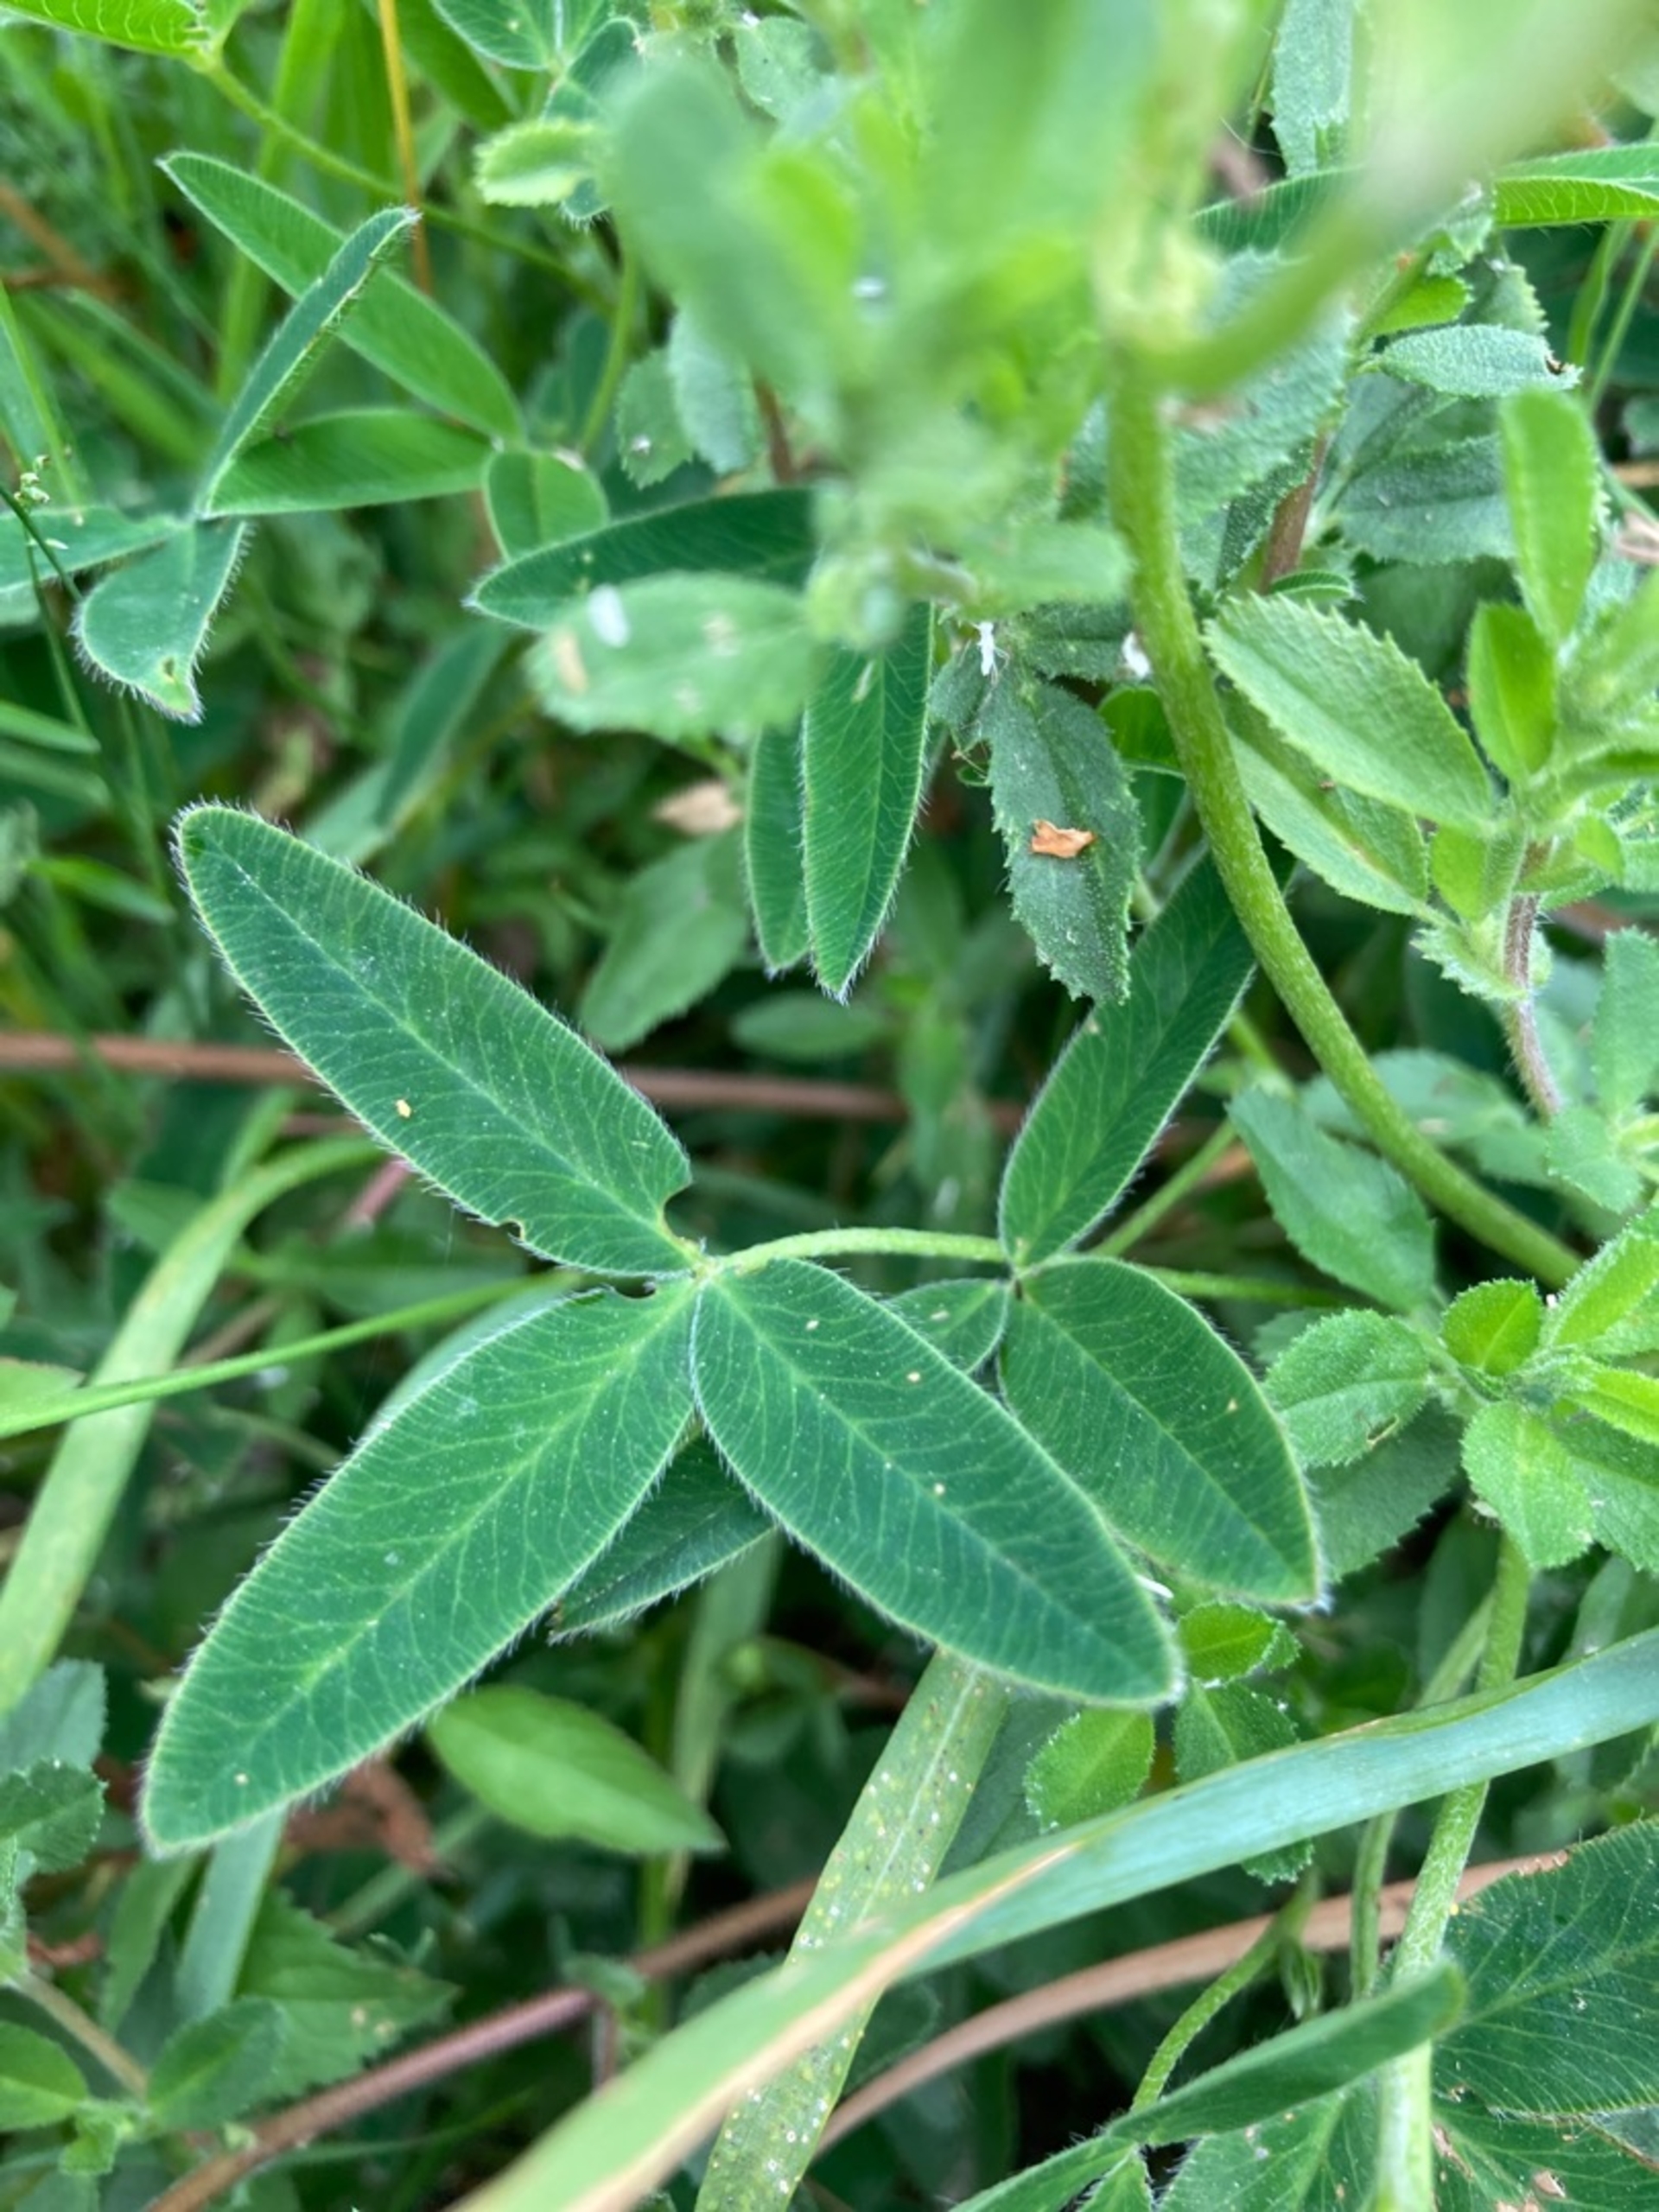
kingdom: Plantae
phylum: Tracheophyta
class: Magnoliopsida
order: Fabales
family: Fabaceae
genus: Trifolium
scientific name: Trifolium medium
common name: Bugtet kløver
